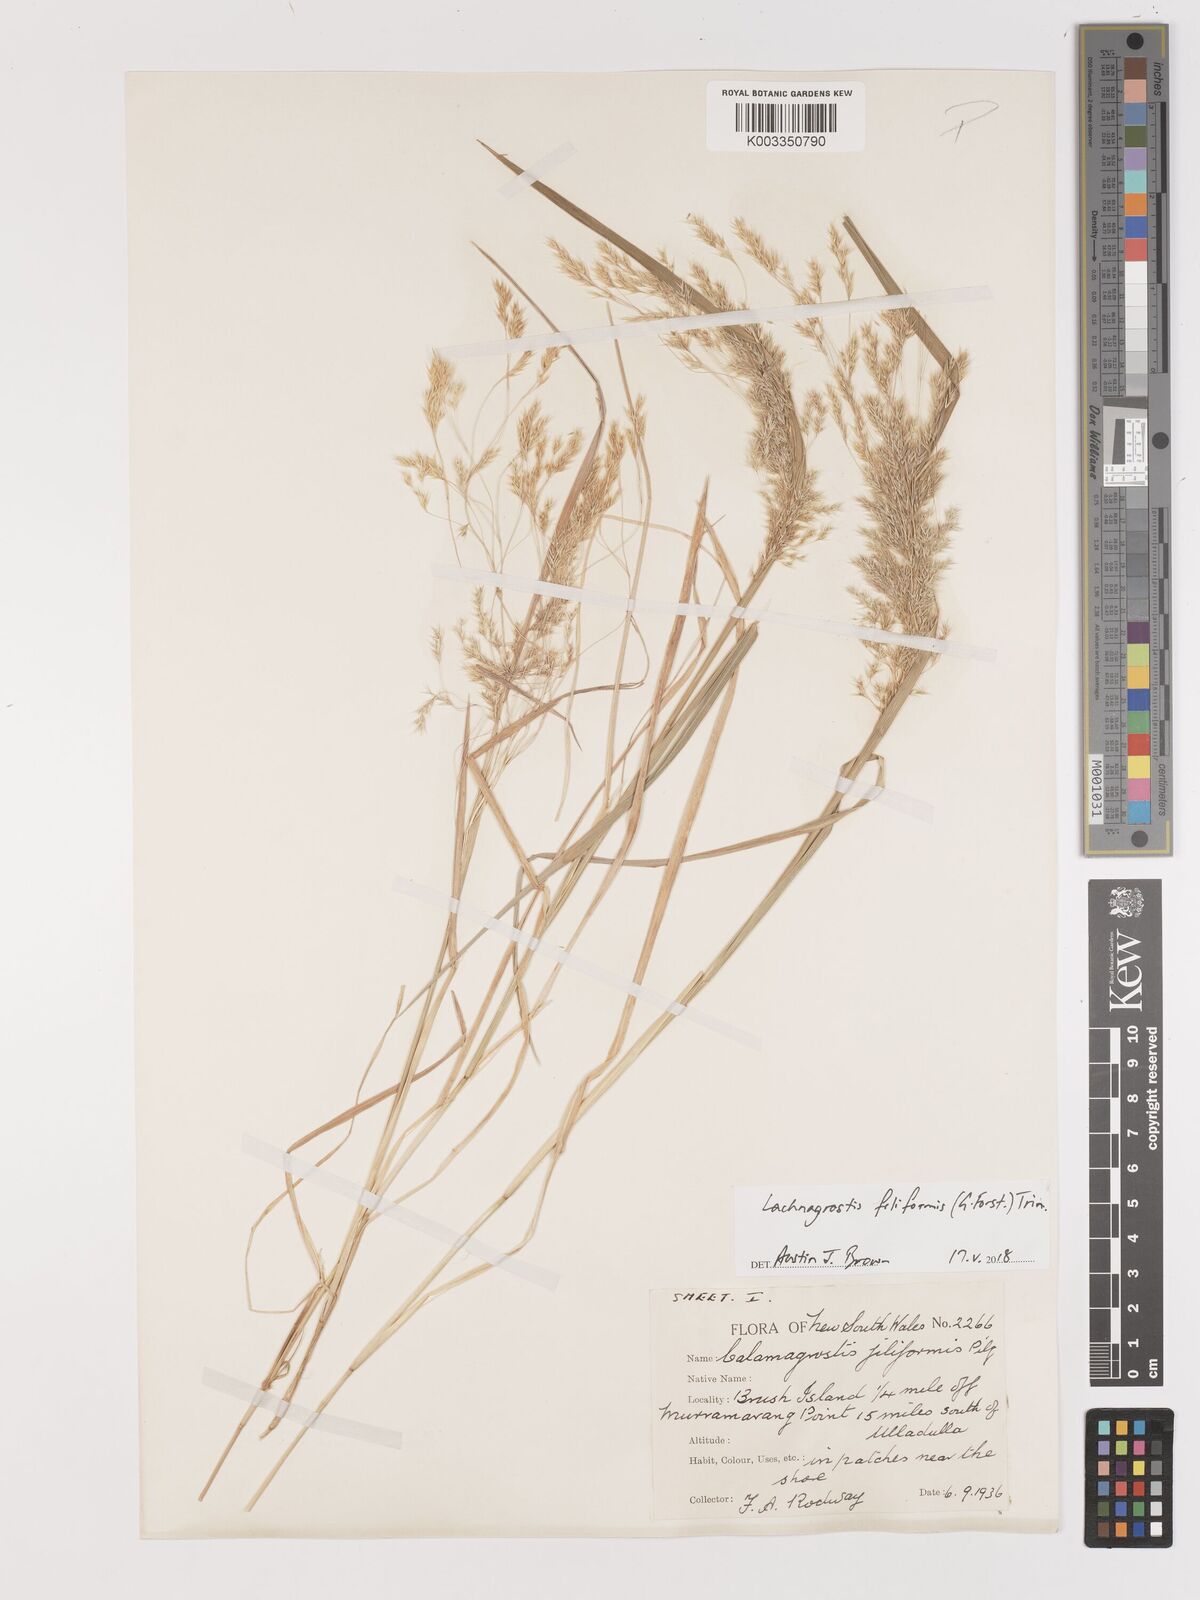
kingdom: Plantae
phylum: Tracheophyta
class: Liliopsida
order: Poales
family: Poaceae
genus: Lachnagrostis
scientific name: Lachnagrostis filiformis
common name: Bentgrass
